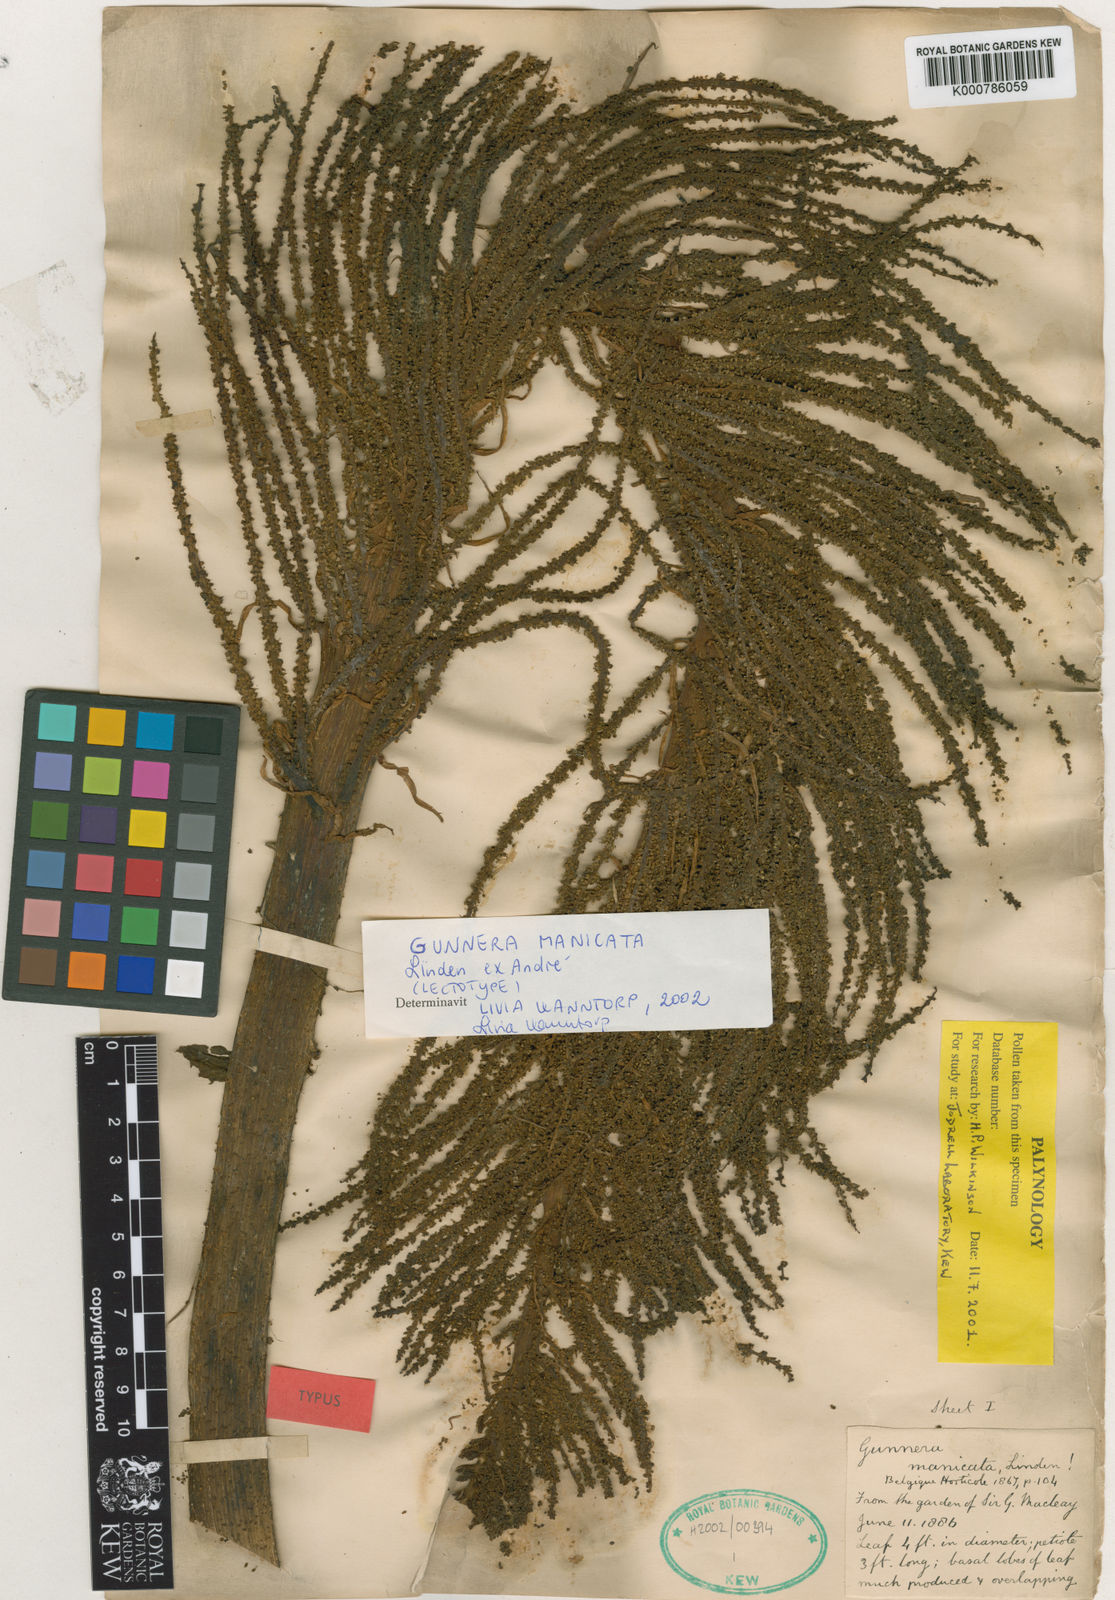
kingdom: Plantae
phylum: Tracheophyta
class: Magnoliopsida
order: Gunnerales
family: Gunneraceae
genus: Gunnera
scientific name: Gunnera manicata
